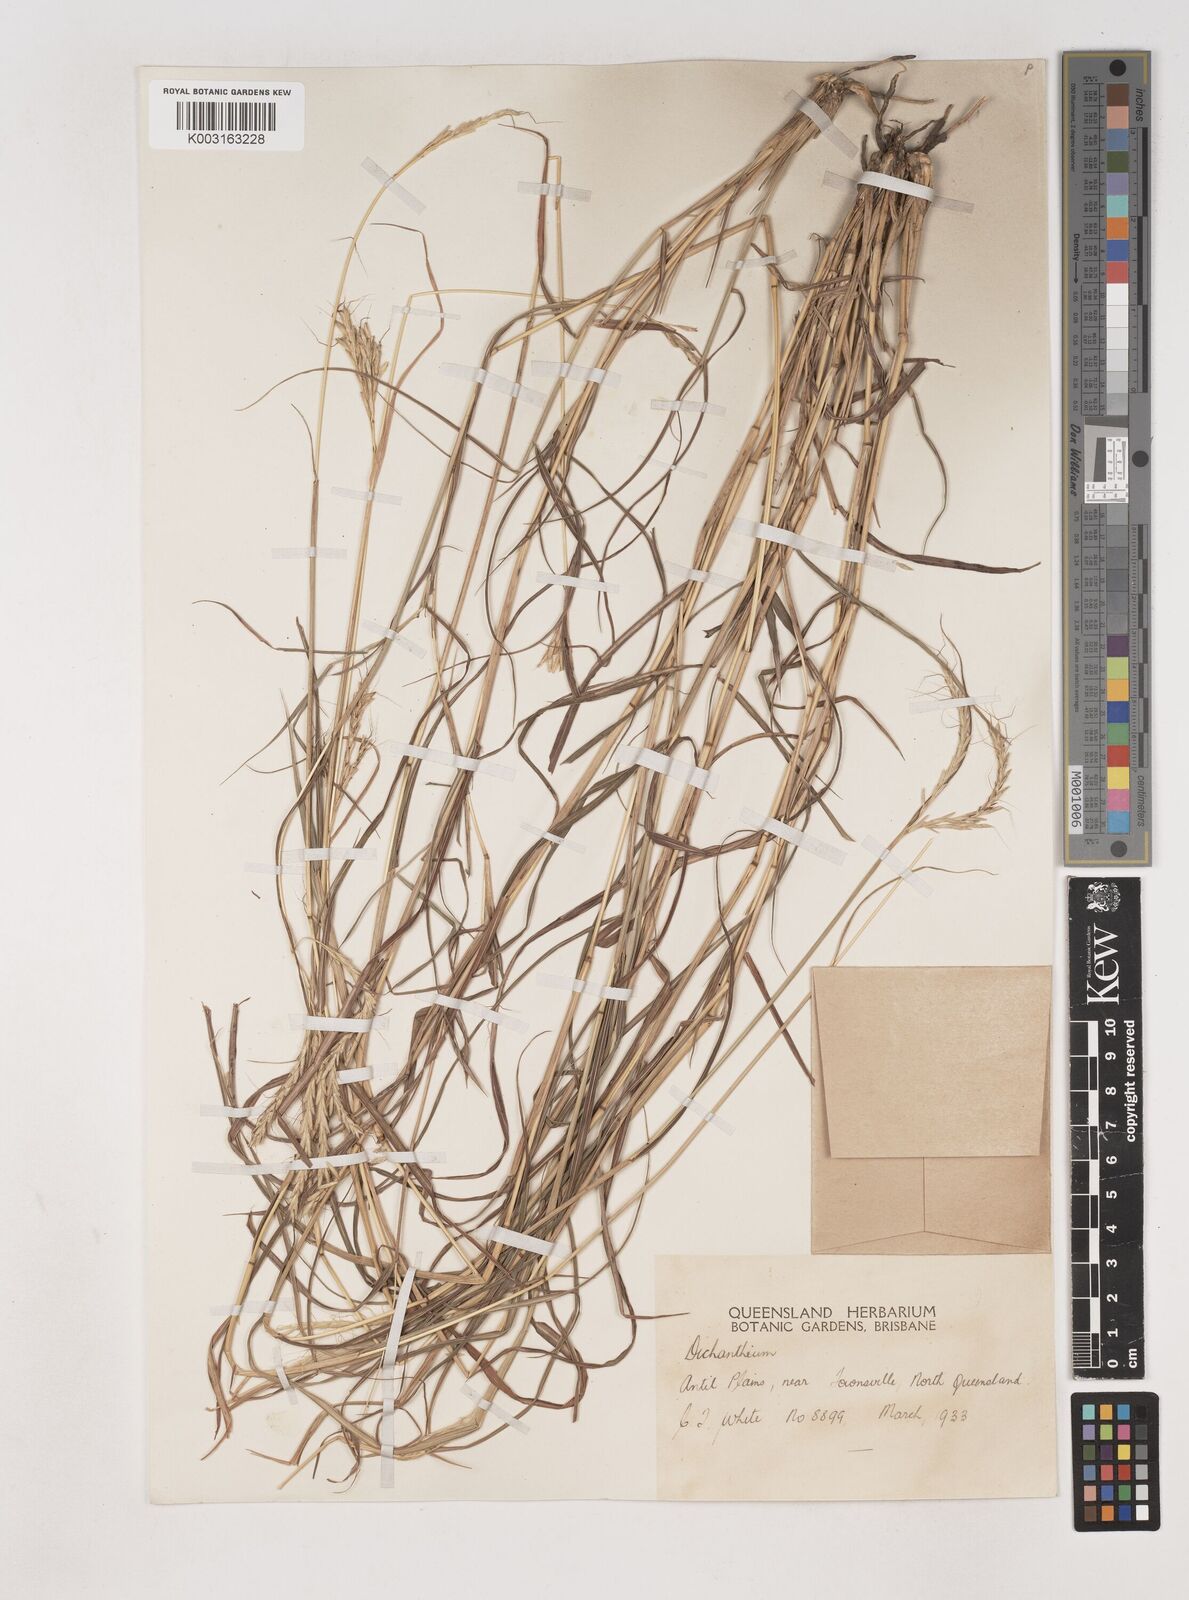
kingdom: Plantae
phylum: Tracheophyta
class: Liliopsida
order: Poales
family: Poaceae
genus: Dichanthium
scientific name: Dichanthium fecundum
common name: Bundle-bundle
